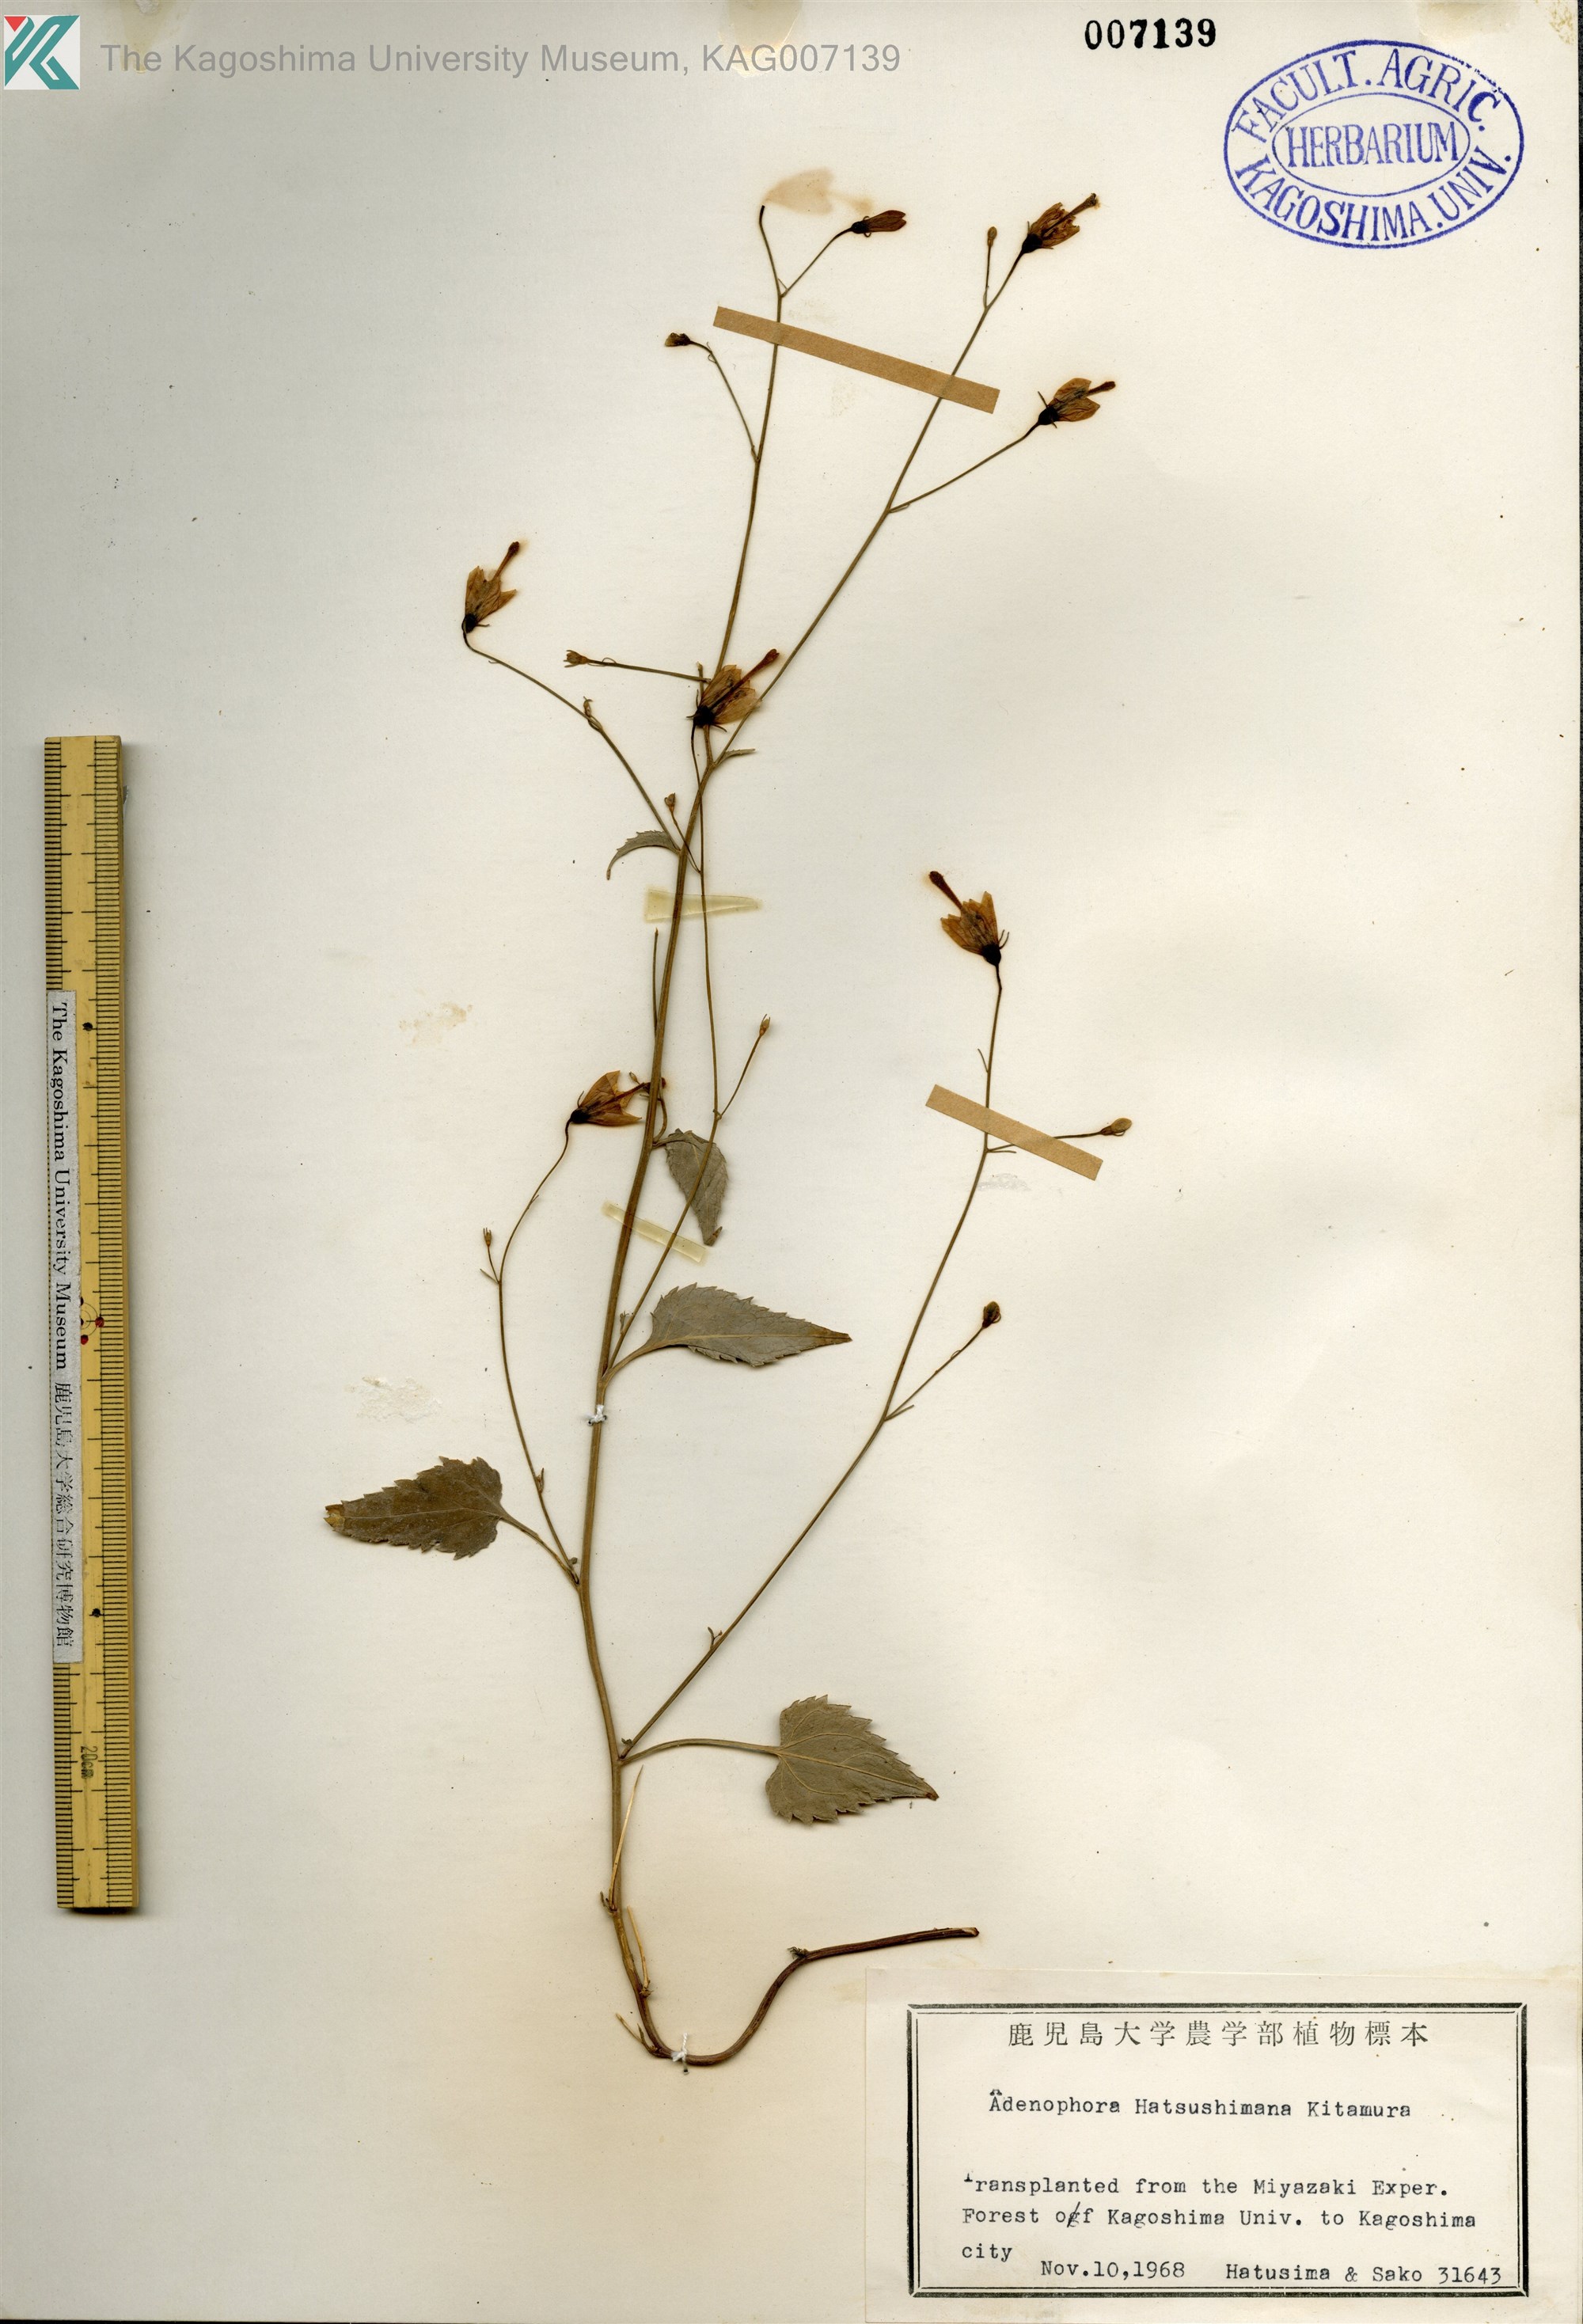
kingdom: Plantae
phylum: Tracheophyta
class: Magnoliopsida
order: Asterales
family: Campanulaceae
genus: Adenophora
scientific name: Adenophora hatsushimae
